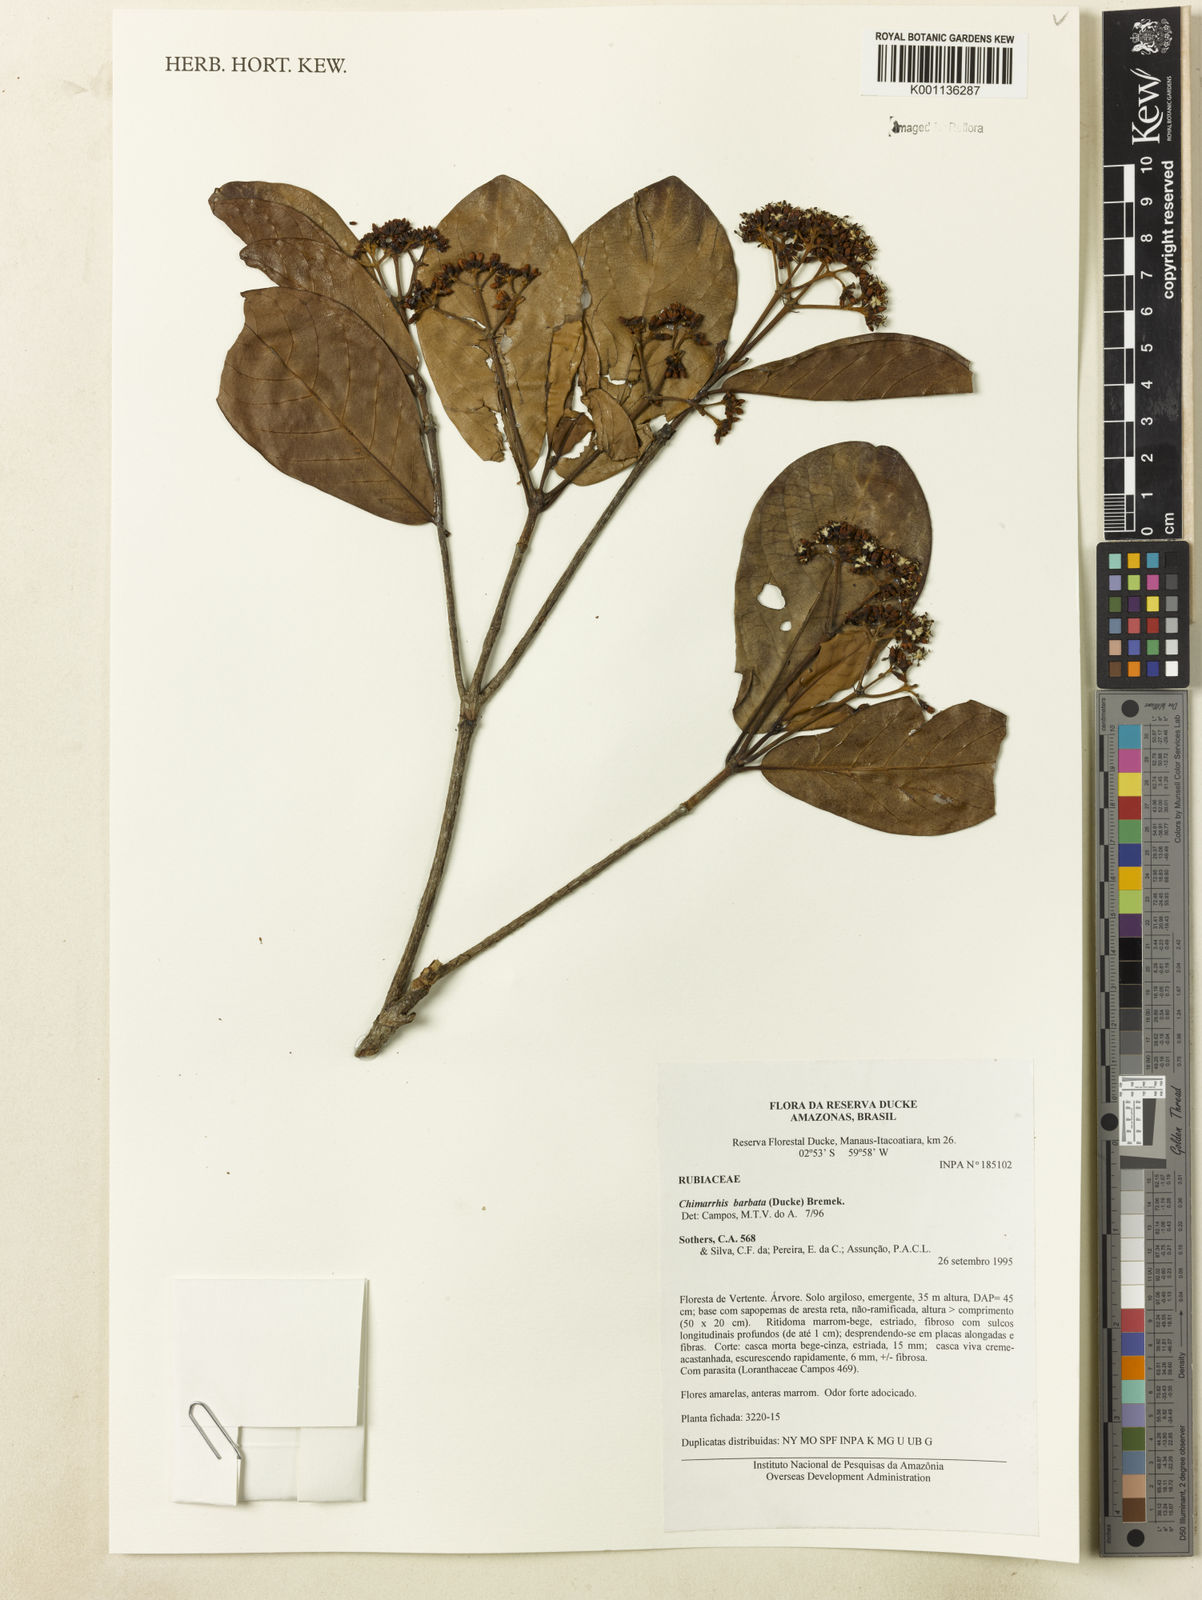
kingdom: Plantae
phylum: Tracheophyta
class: Magnoliopsida
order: Gentianales
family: Rubiaceae
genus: Chimarrhis
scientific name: Chimarrhis barbata
